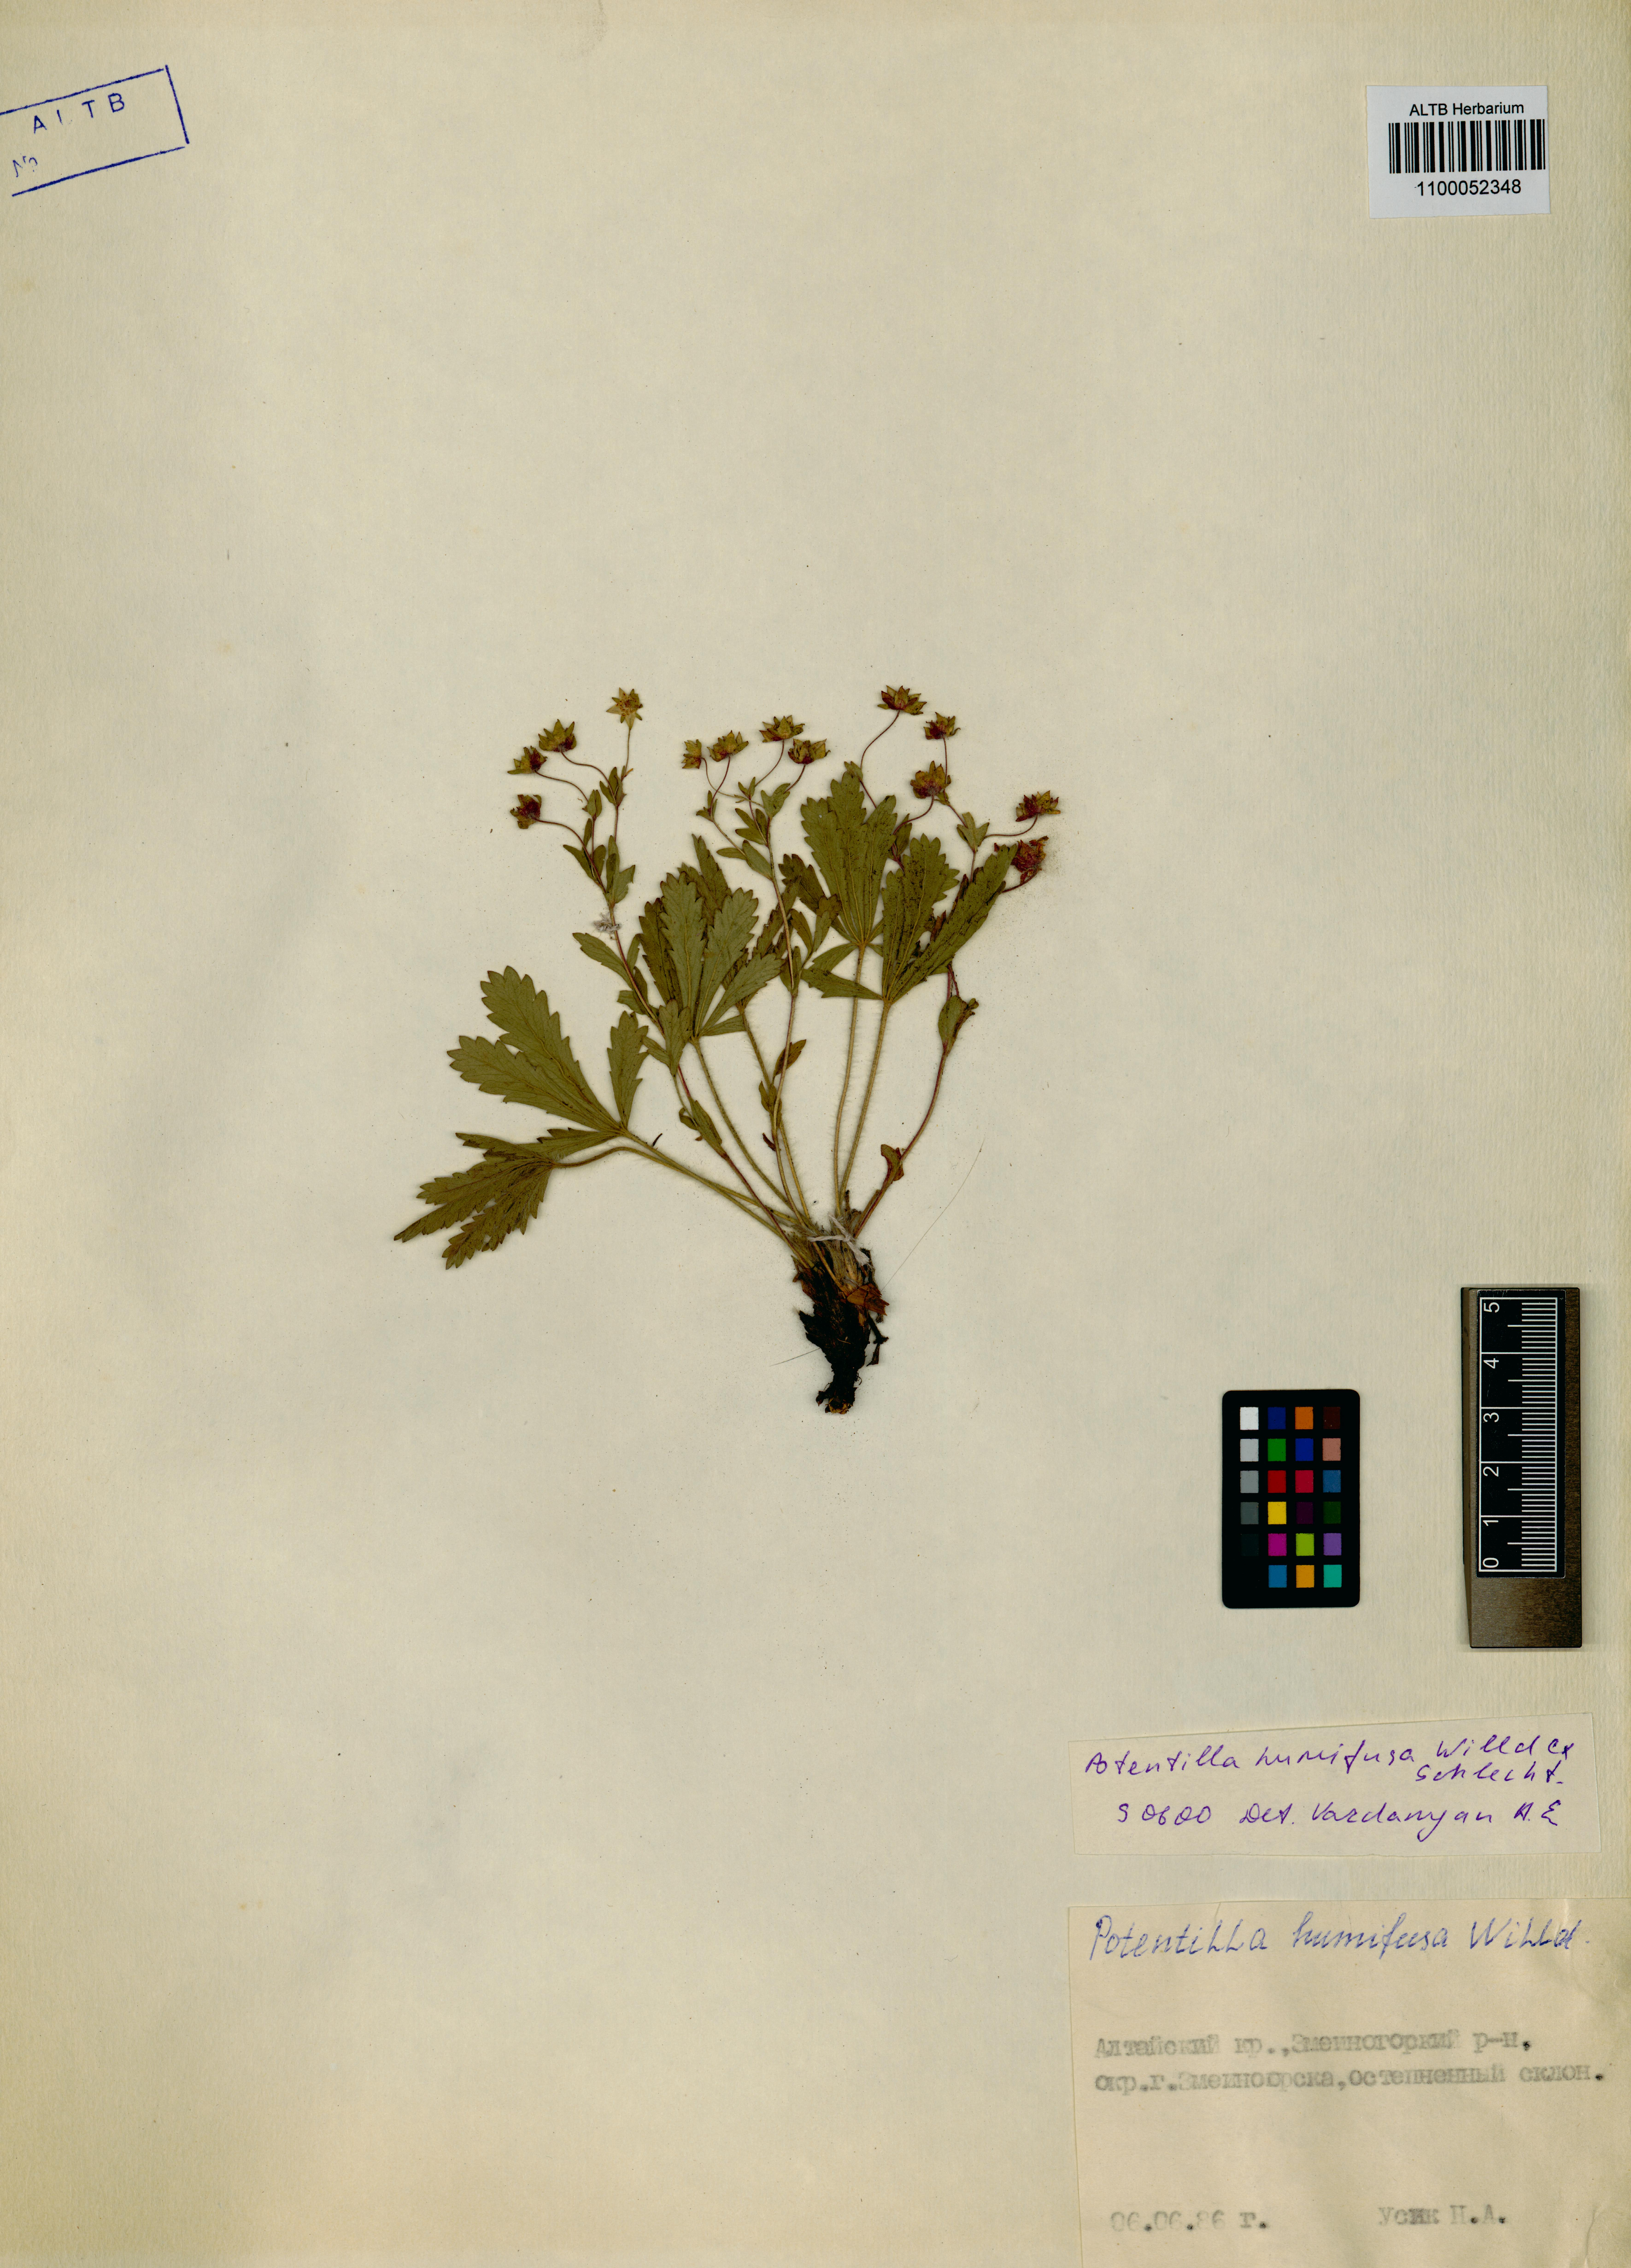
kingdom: Plantae
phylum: Tracheophyta
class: Magnoliopsida
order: Rosales
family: Rosaceae
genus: Potentilla
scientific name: Potentilla humifusa
